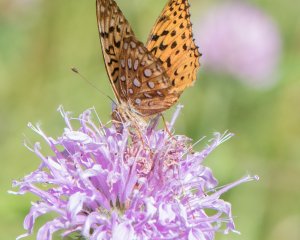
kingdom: Animalia
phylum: Arthropoda
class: Insecta
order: Lepidoptera
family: Nymphalidae
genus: Speyeria
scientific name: Speyeria aphrodite
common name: Aphrodite Fritillary
